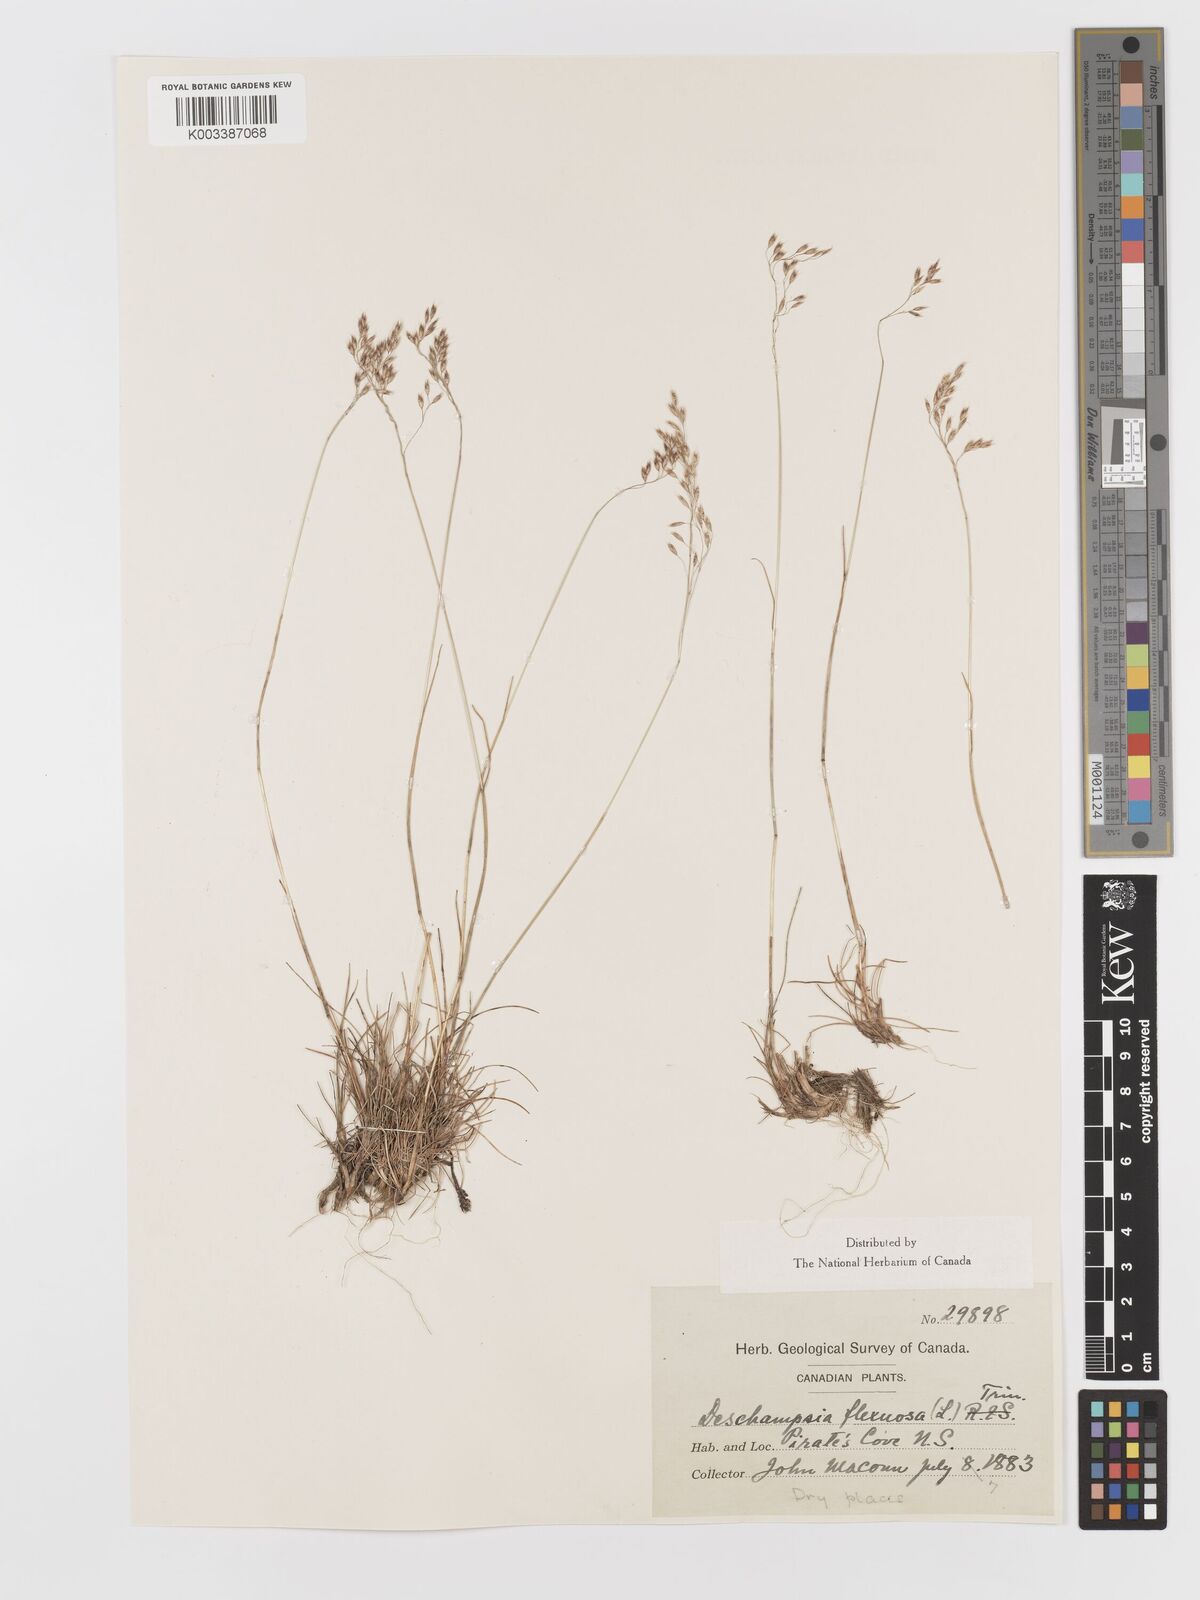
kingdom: Plantae
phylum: Tracheophyta
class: Liliopsida
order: Poales
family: Poaceae
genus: Avenella
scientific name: Avenella flexuosa
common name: Wavy hairgrass
